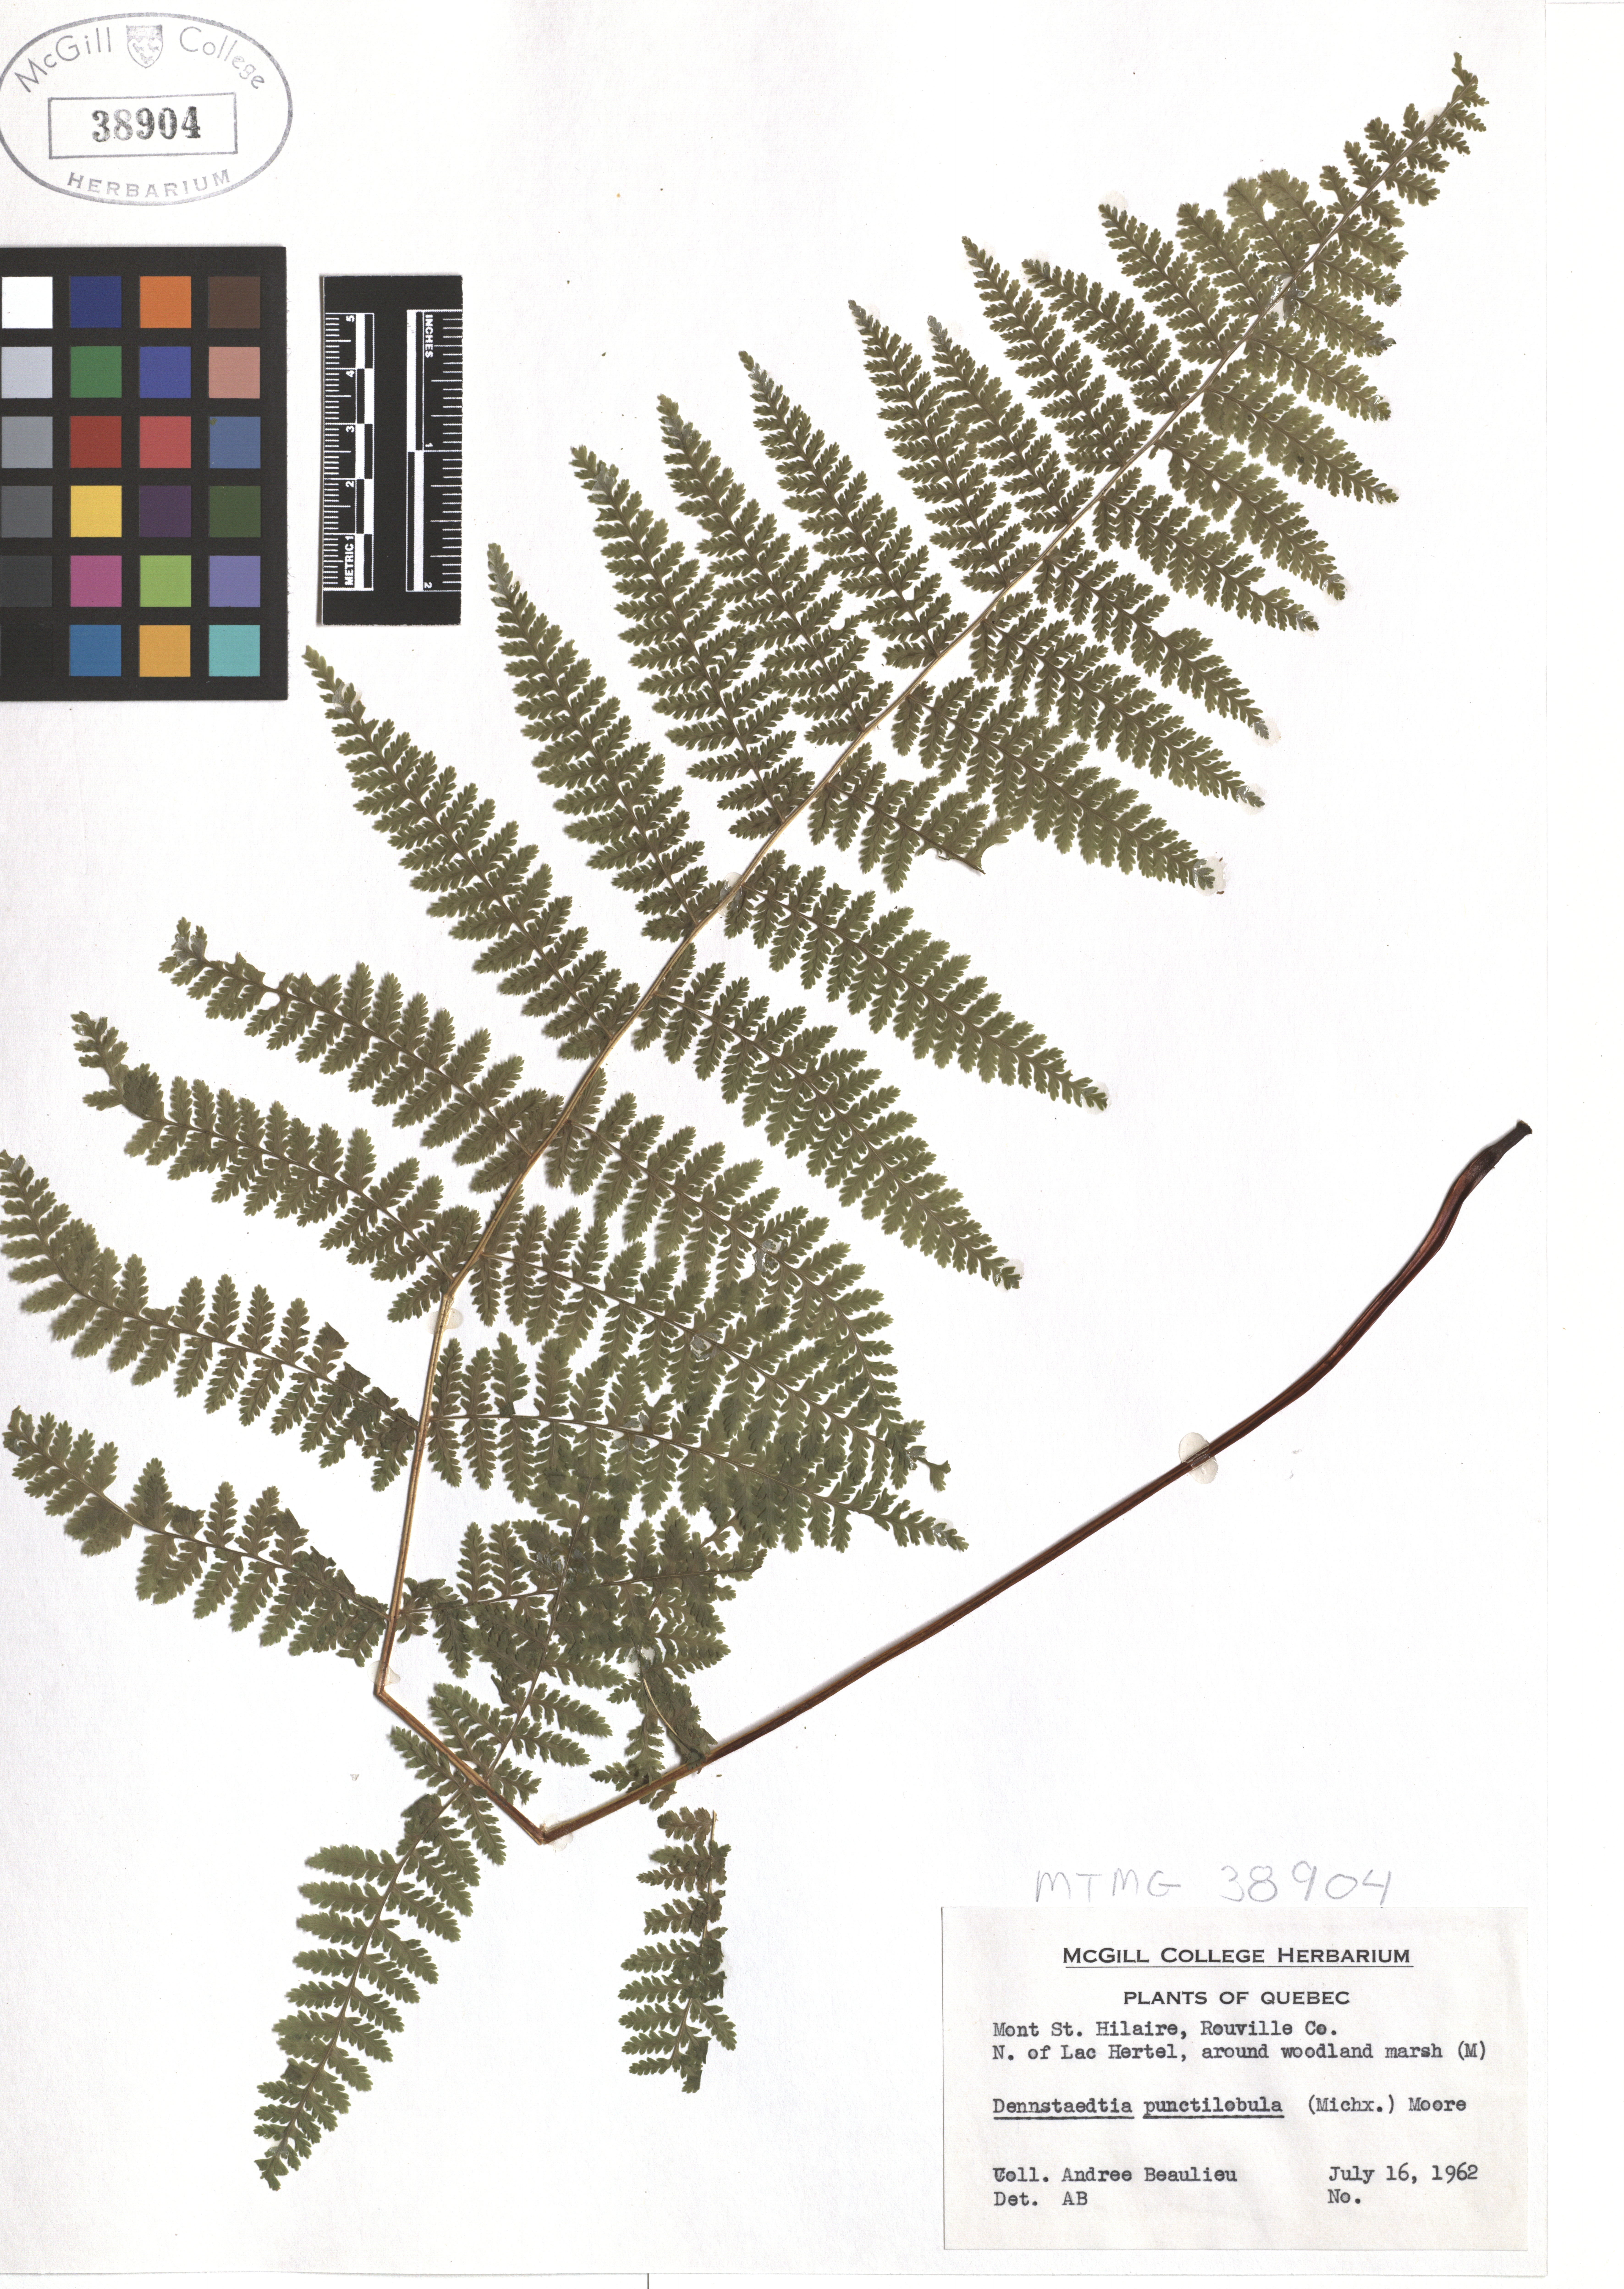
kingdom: Plantae
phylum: Tracheophyta
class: Polypodiopsida
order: Polypodiales
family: Dennstaedtiaceae
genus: Sitobolium
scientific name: Sitobolium punctilobum
